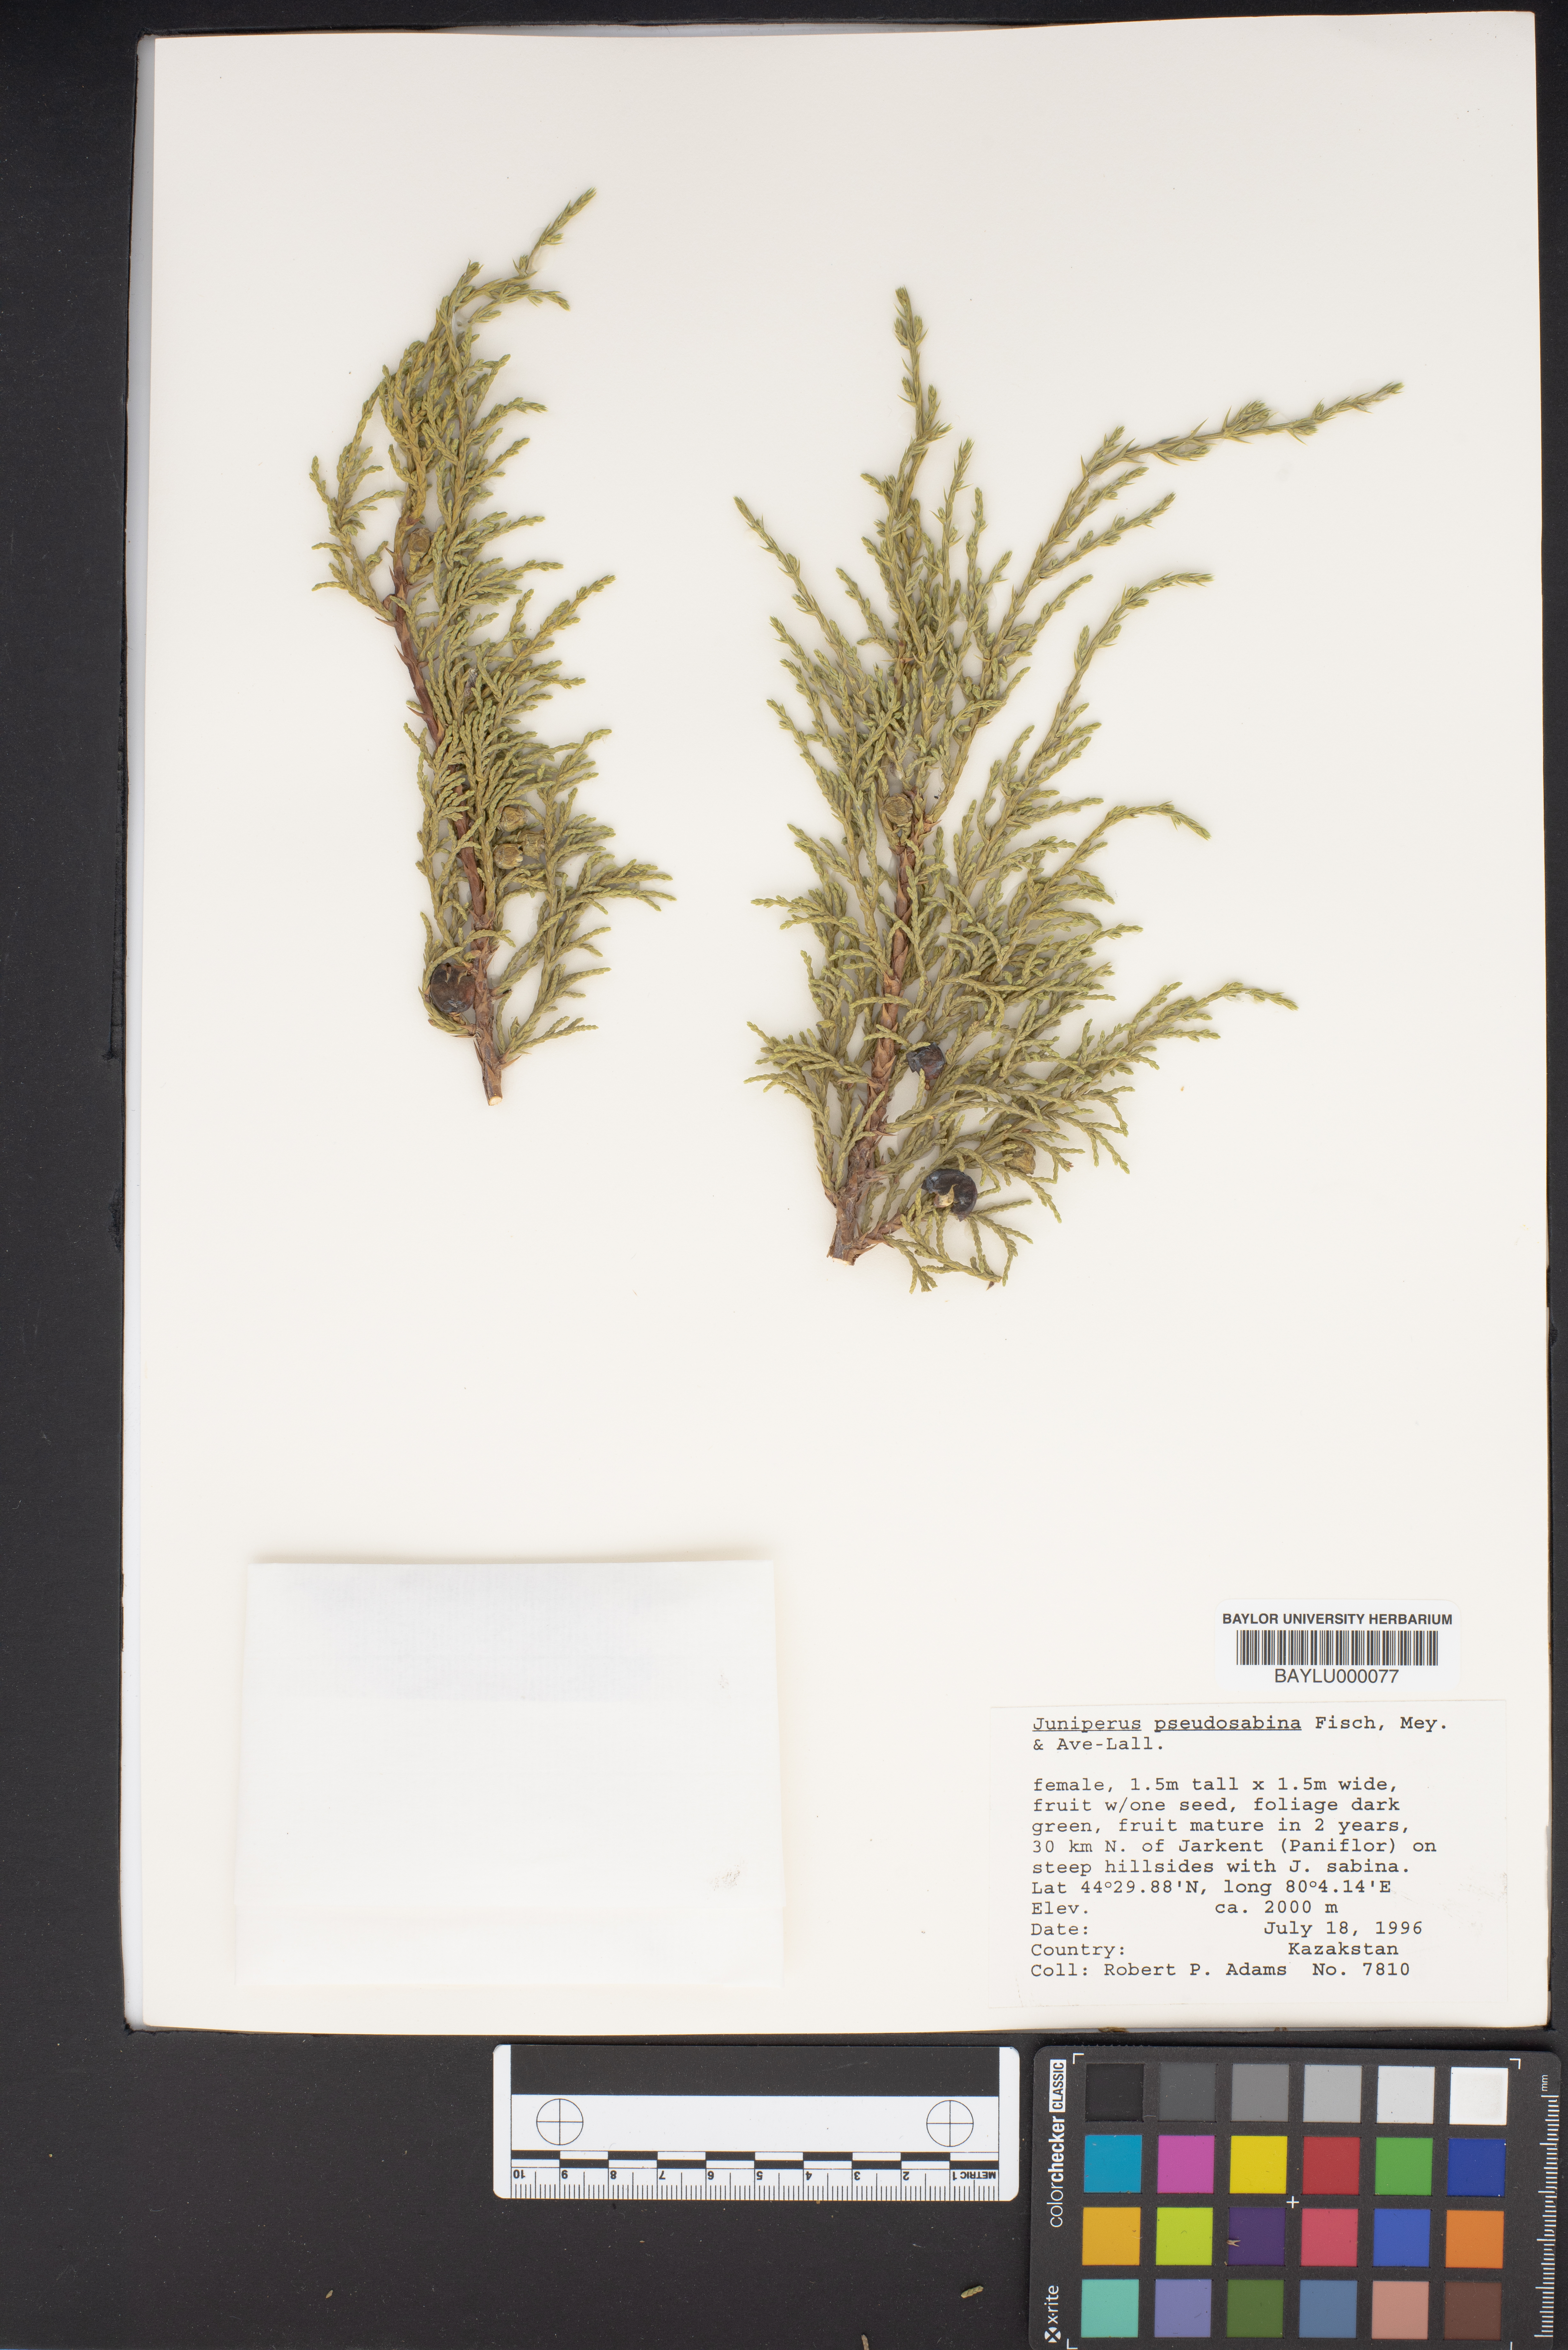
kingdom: Plantae
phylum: Tracheophyta
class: Pinopsida
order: Pinales
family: Cupressaceae
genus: Juniperus
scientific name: Juniperus pseudosabina
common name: Turkestan juniper
